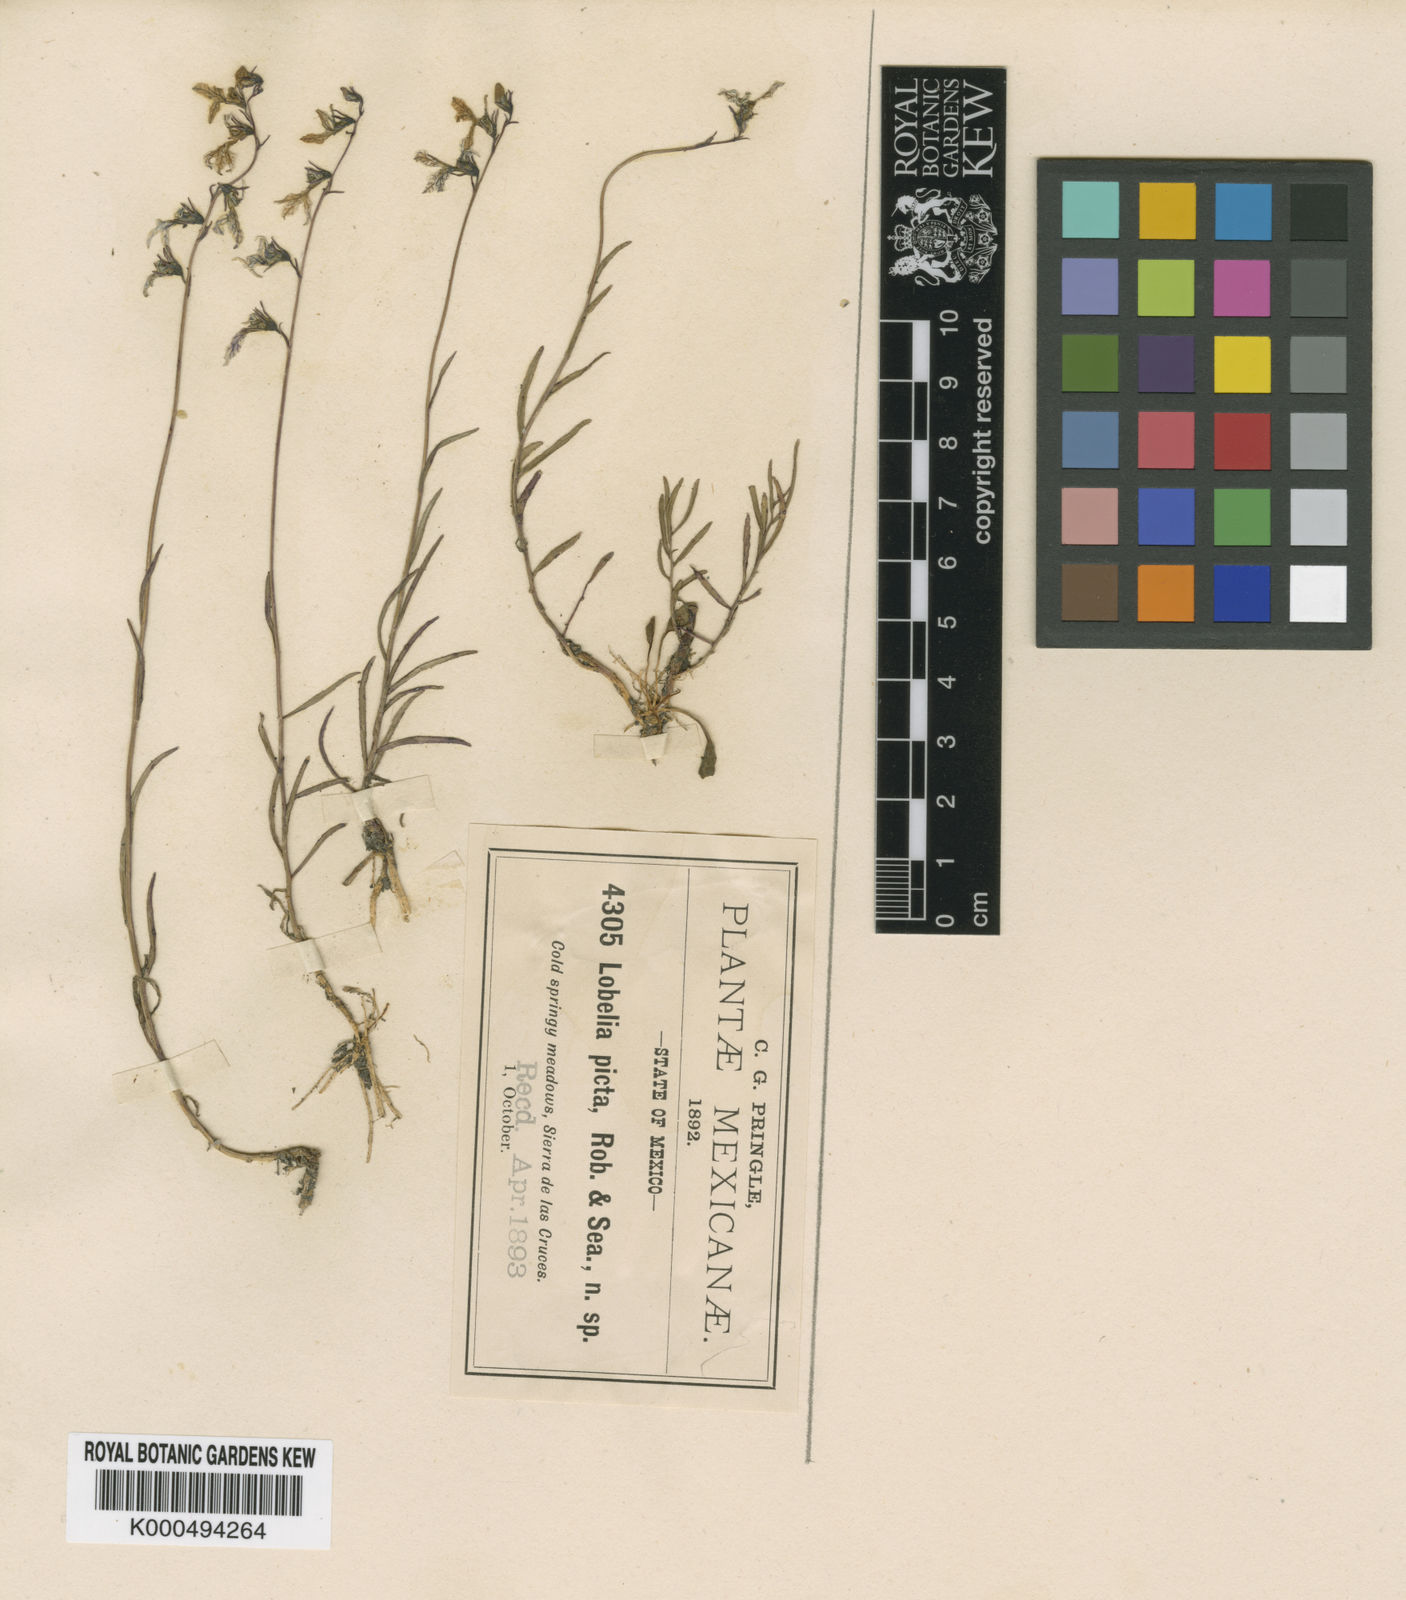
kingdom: Plantae
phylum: Tracheophyta
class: Magnoliopsida
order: Asterales
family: Campanulaceae
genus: Lobelia
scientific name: Lobelia irasuensis
